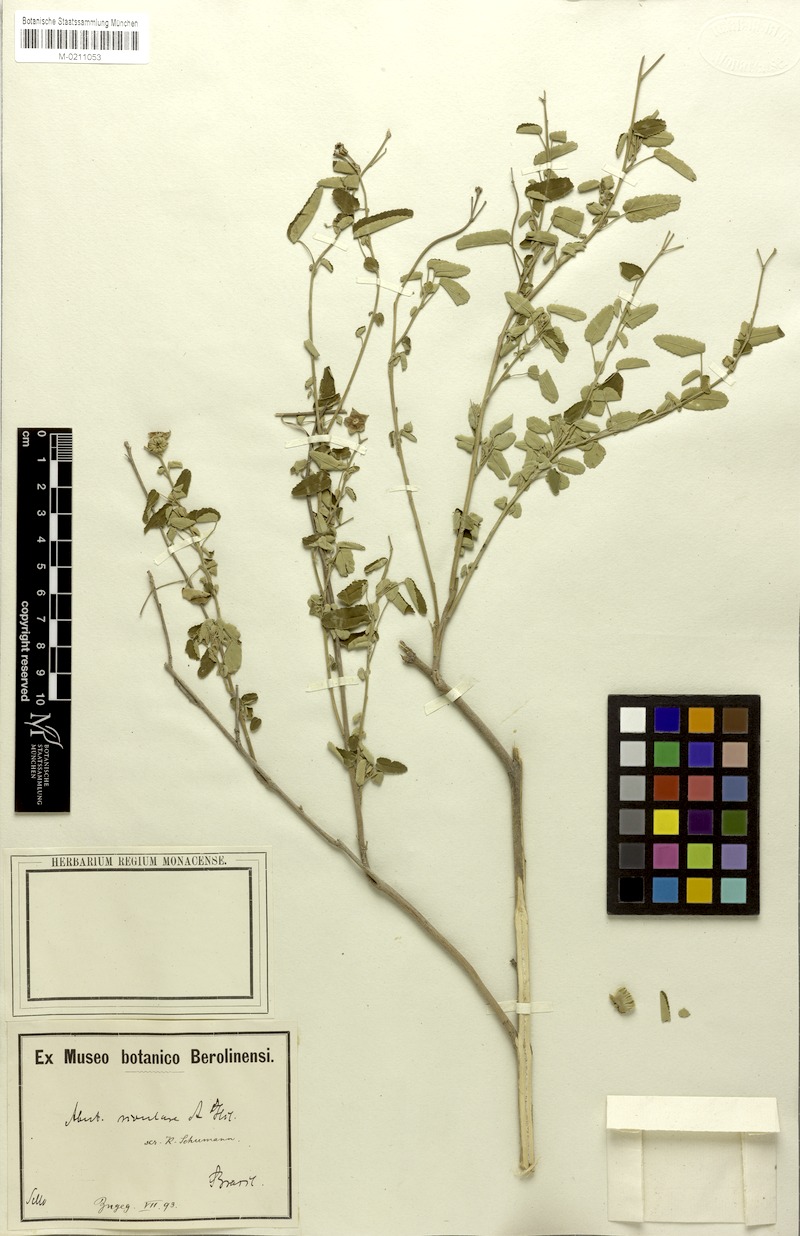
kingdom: Plantae
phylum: Tracheophyta
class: Magnoliopsida
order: Malvales
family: Malvaceae
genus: Abutilon
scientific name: Abutilon affine
